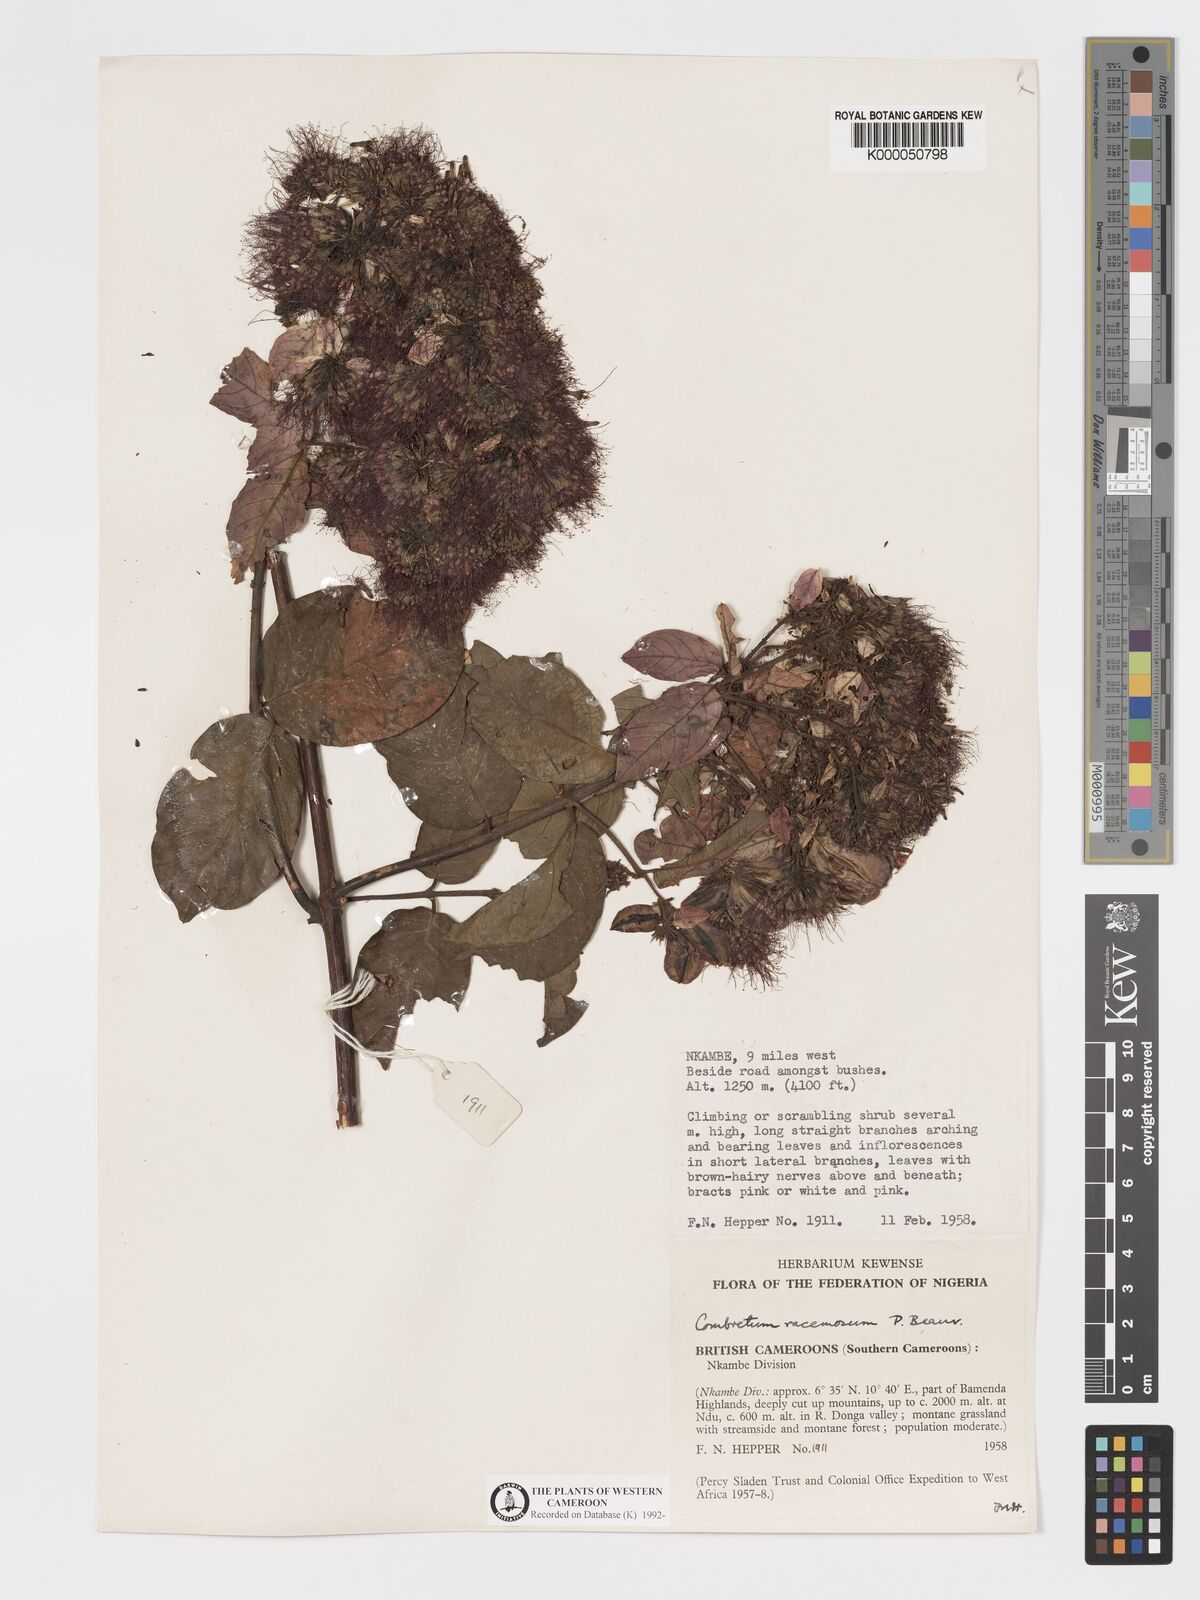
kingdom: Plantae
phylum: Tracheophyta
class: Magnoliopsida
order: Myrtales
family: Combretaceae
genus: Combretum
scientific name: Combretum racemosum
